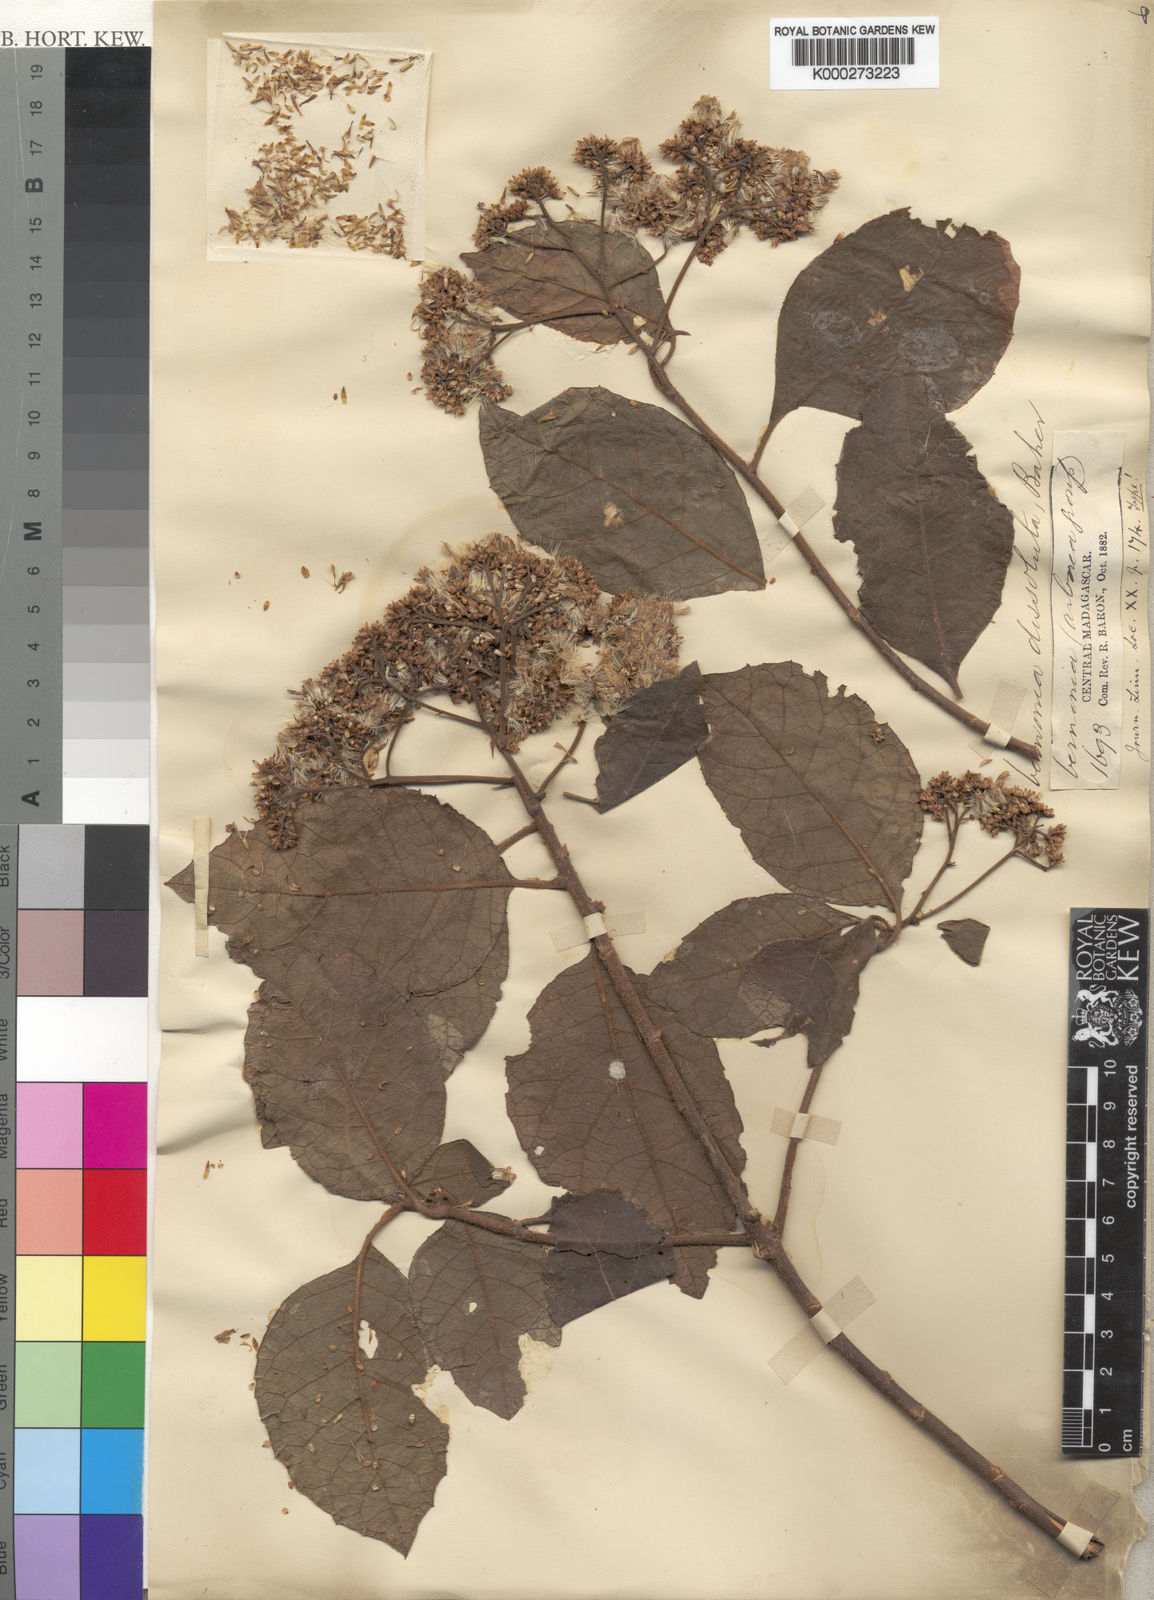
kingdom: Plantae
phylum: Tracheophyta
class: Magnoliopsida
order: Asterales
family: Asteraceae
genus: Gymnanthemum
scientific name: Gymnanthemum dissolutum
